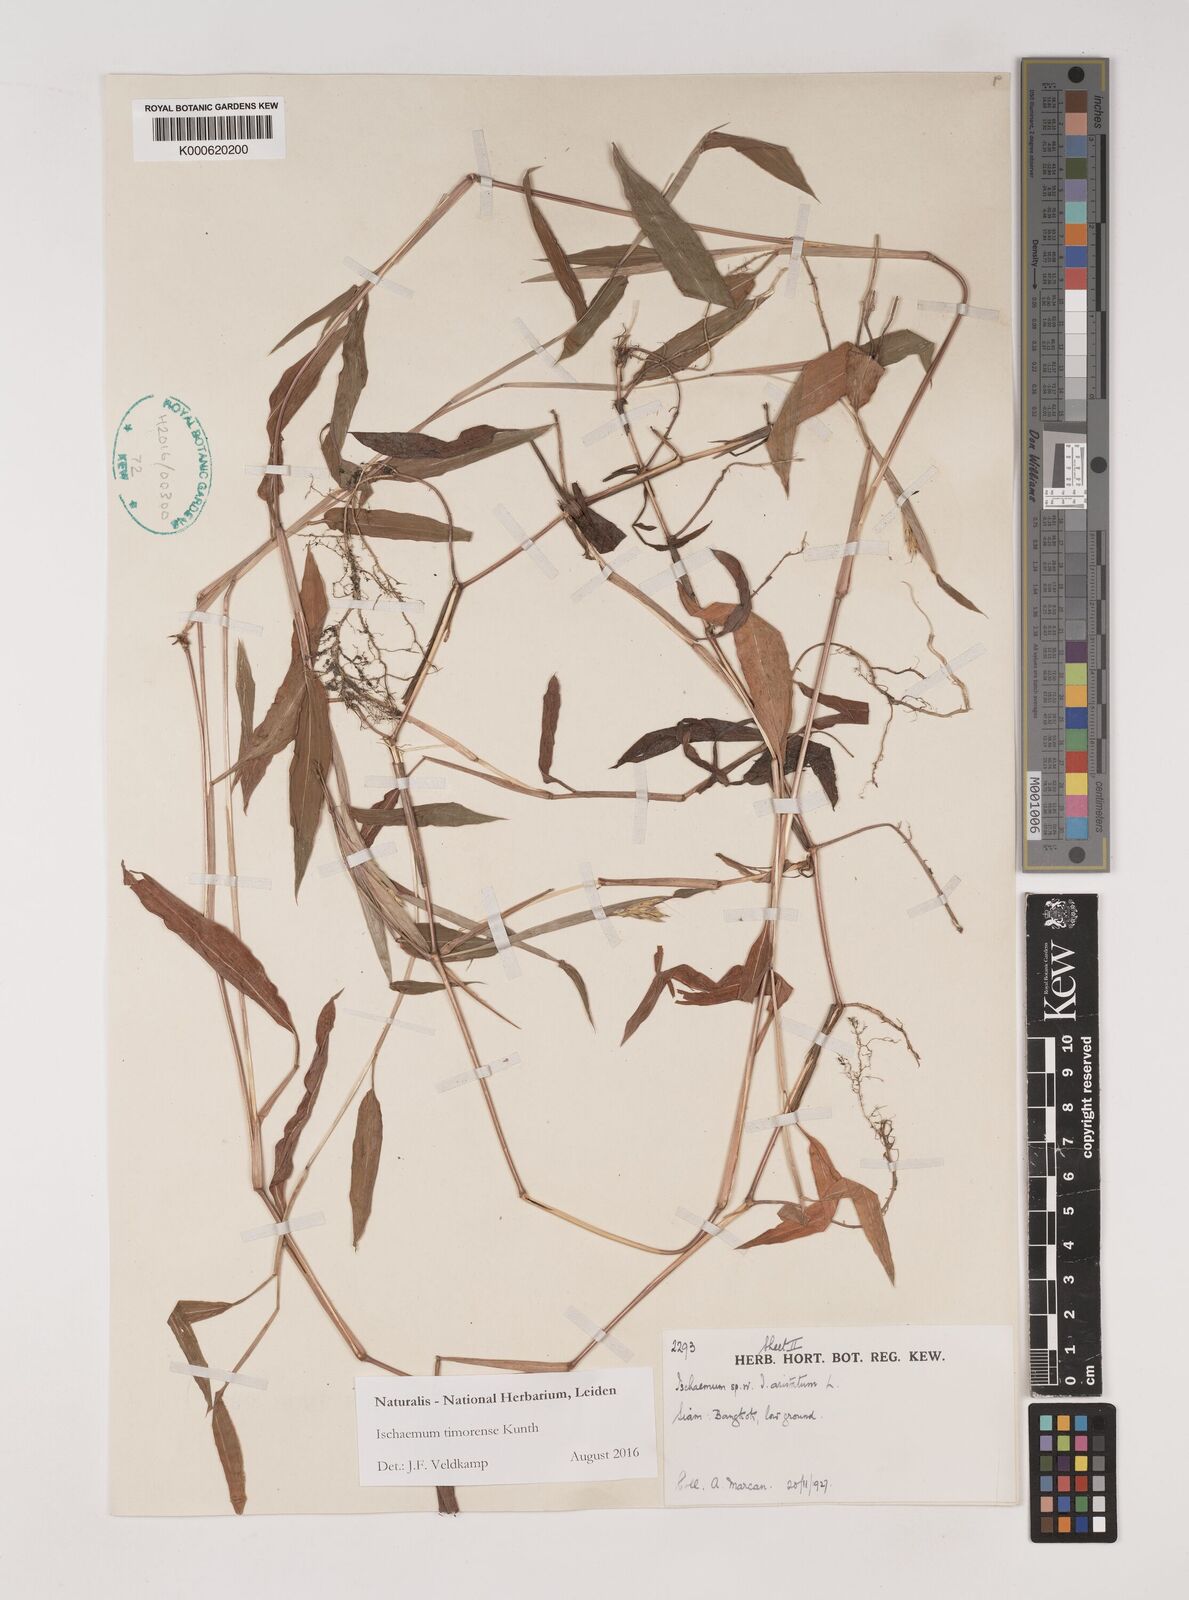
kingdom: Plantae
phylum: Tracheophyta
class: Liliopsida
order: Poales
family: Poaceae
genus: Ischaemum
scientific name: Ischaemum timorense
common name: Stalkleaf murainagrass
